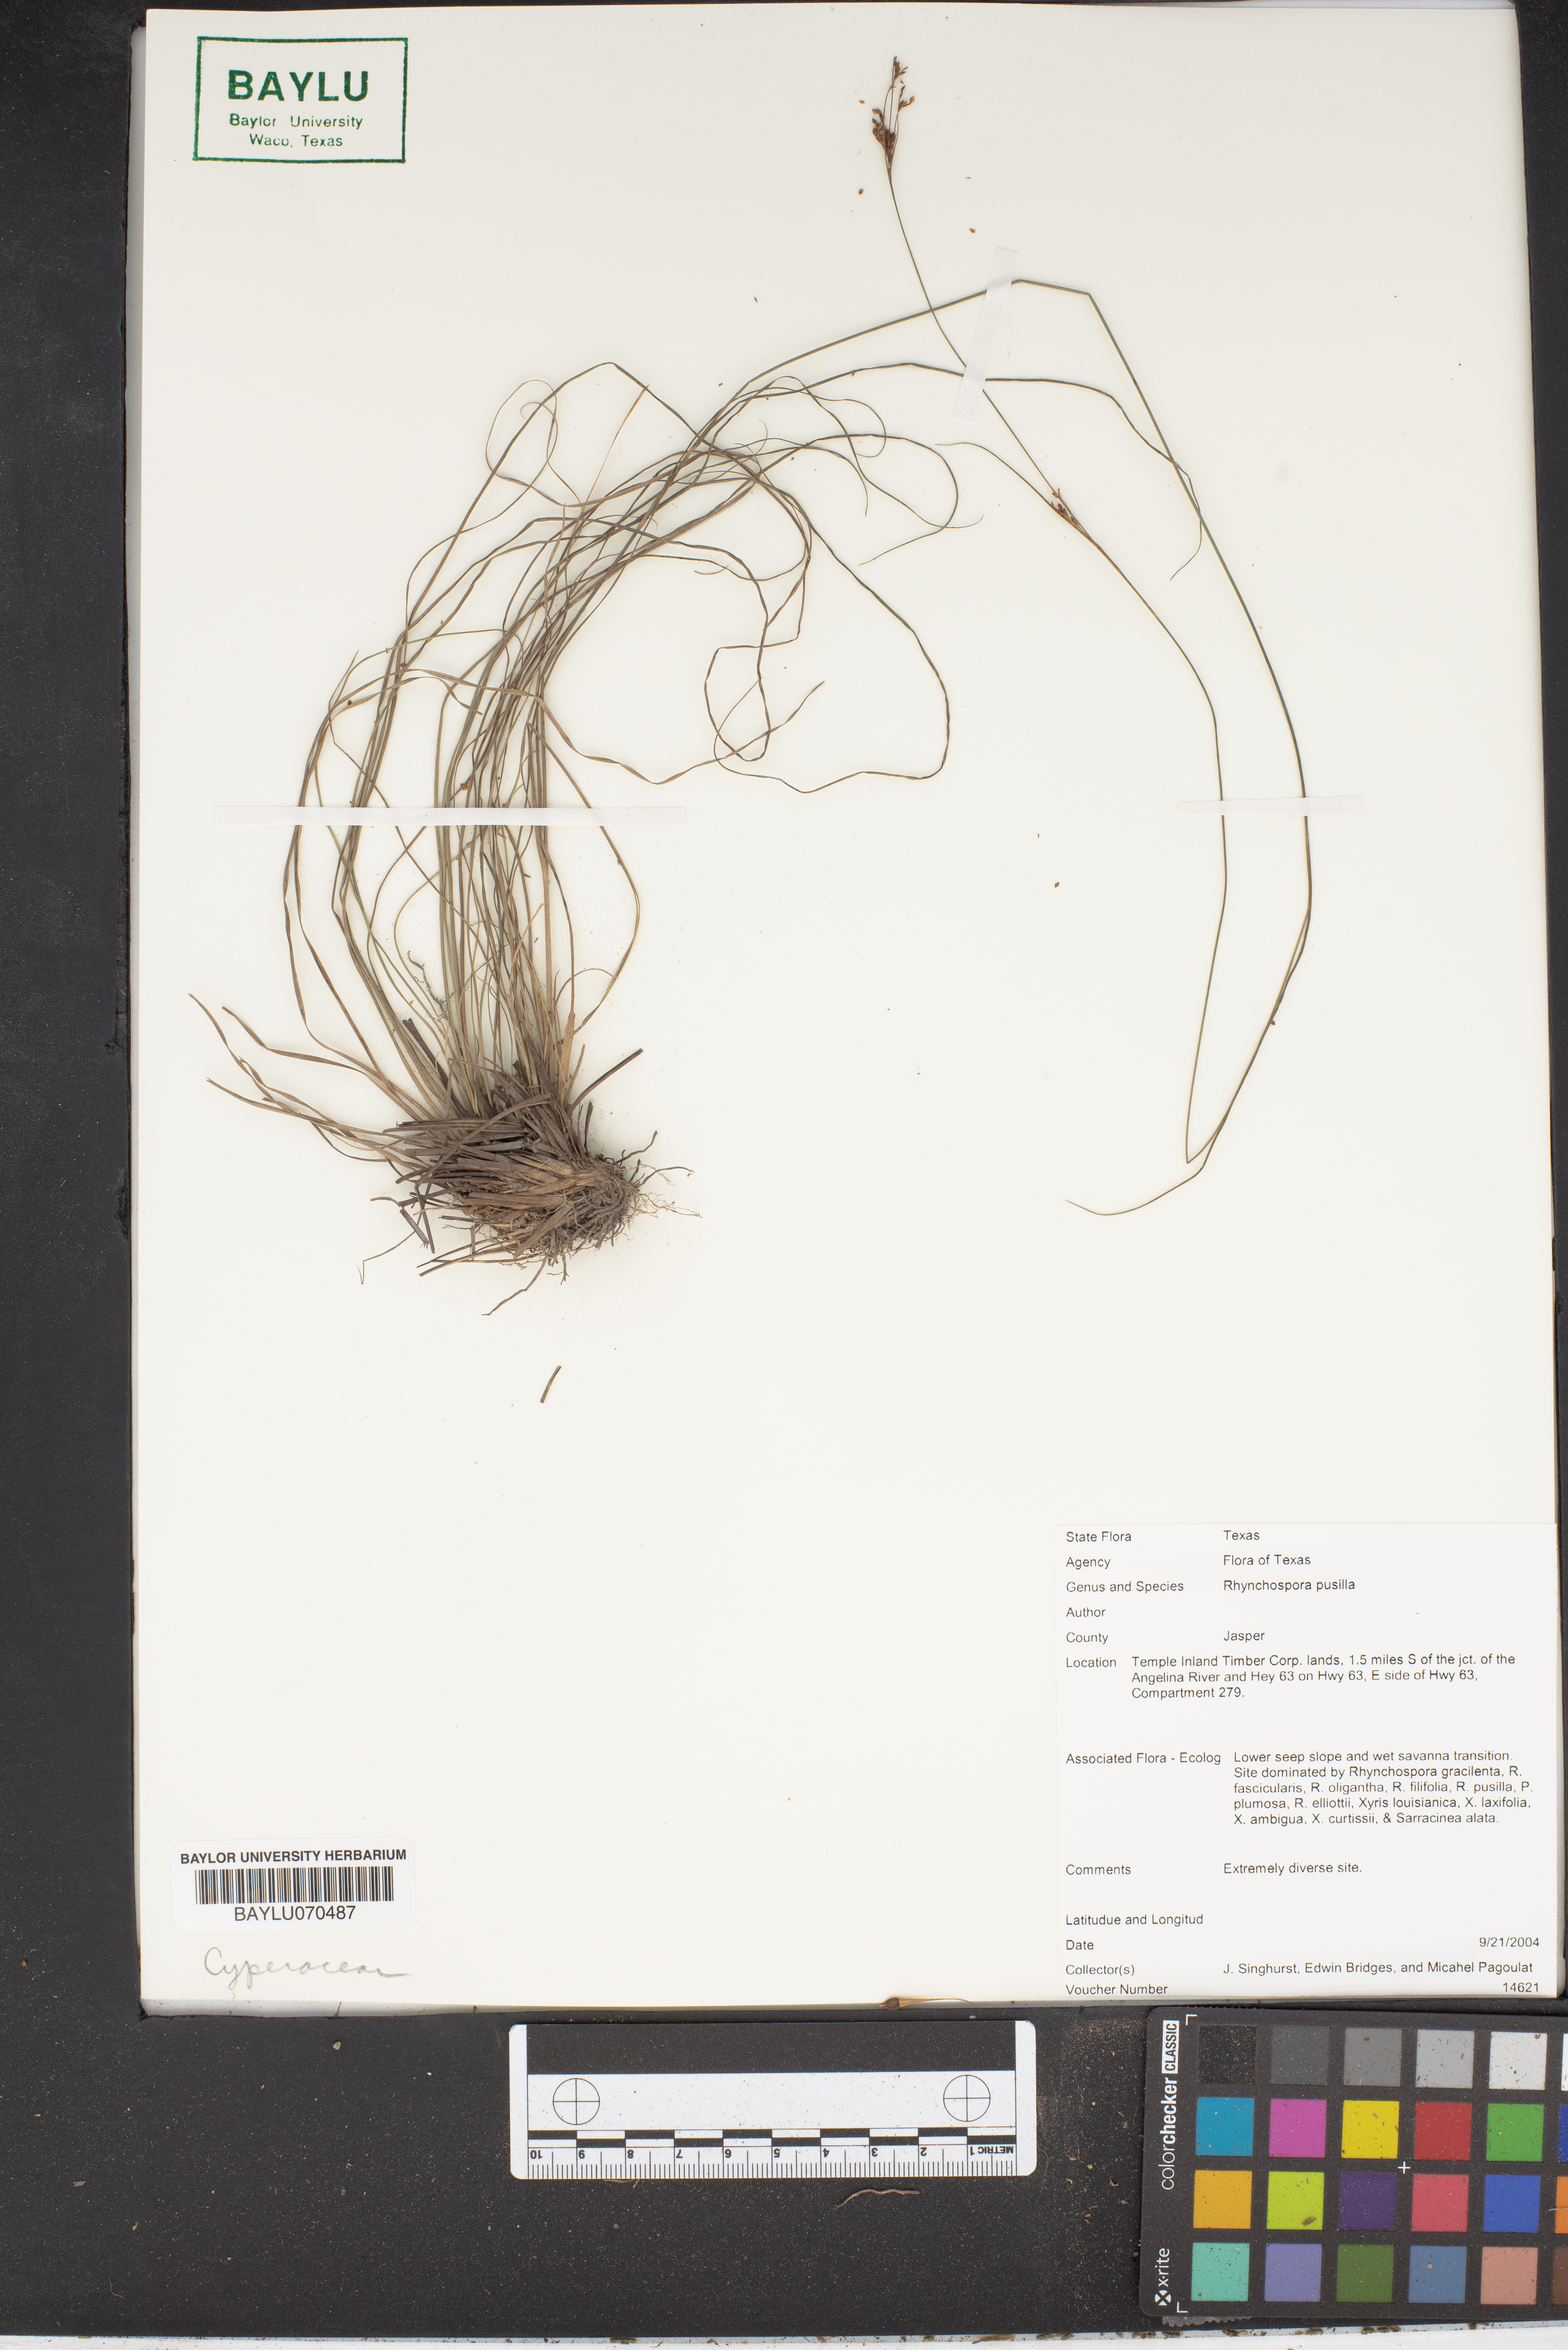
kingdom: Plantae
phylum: Tracheophyta
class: Liliopsida
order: Poales
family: Cyperaceae
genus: Rhynchospora
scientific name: Rhynchospora pusilla
